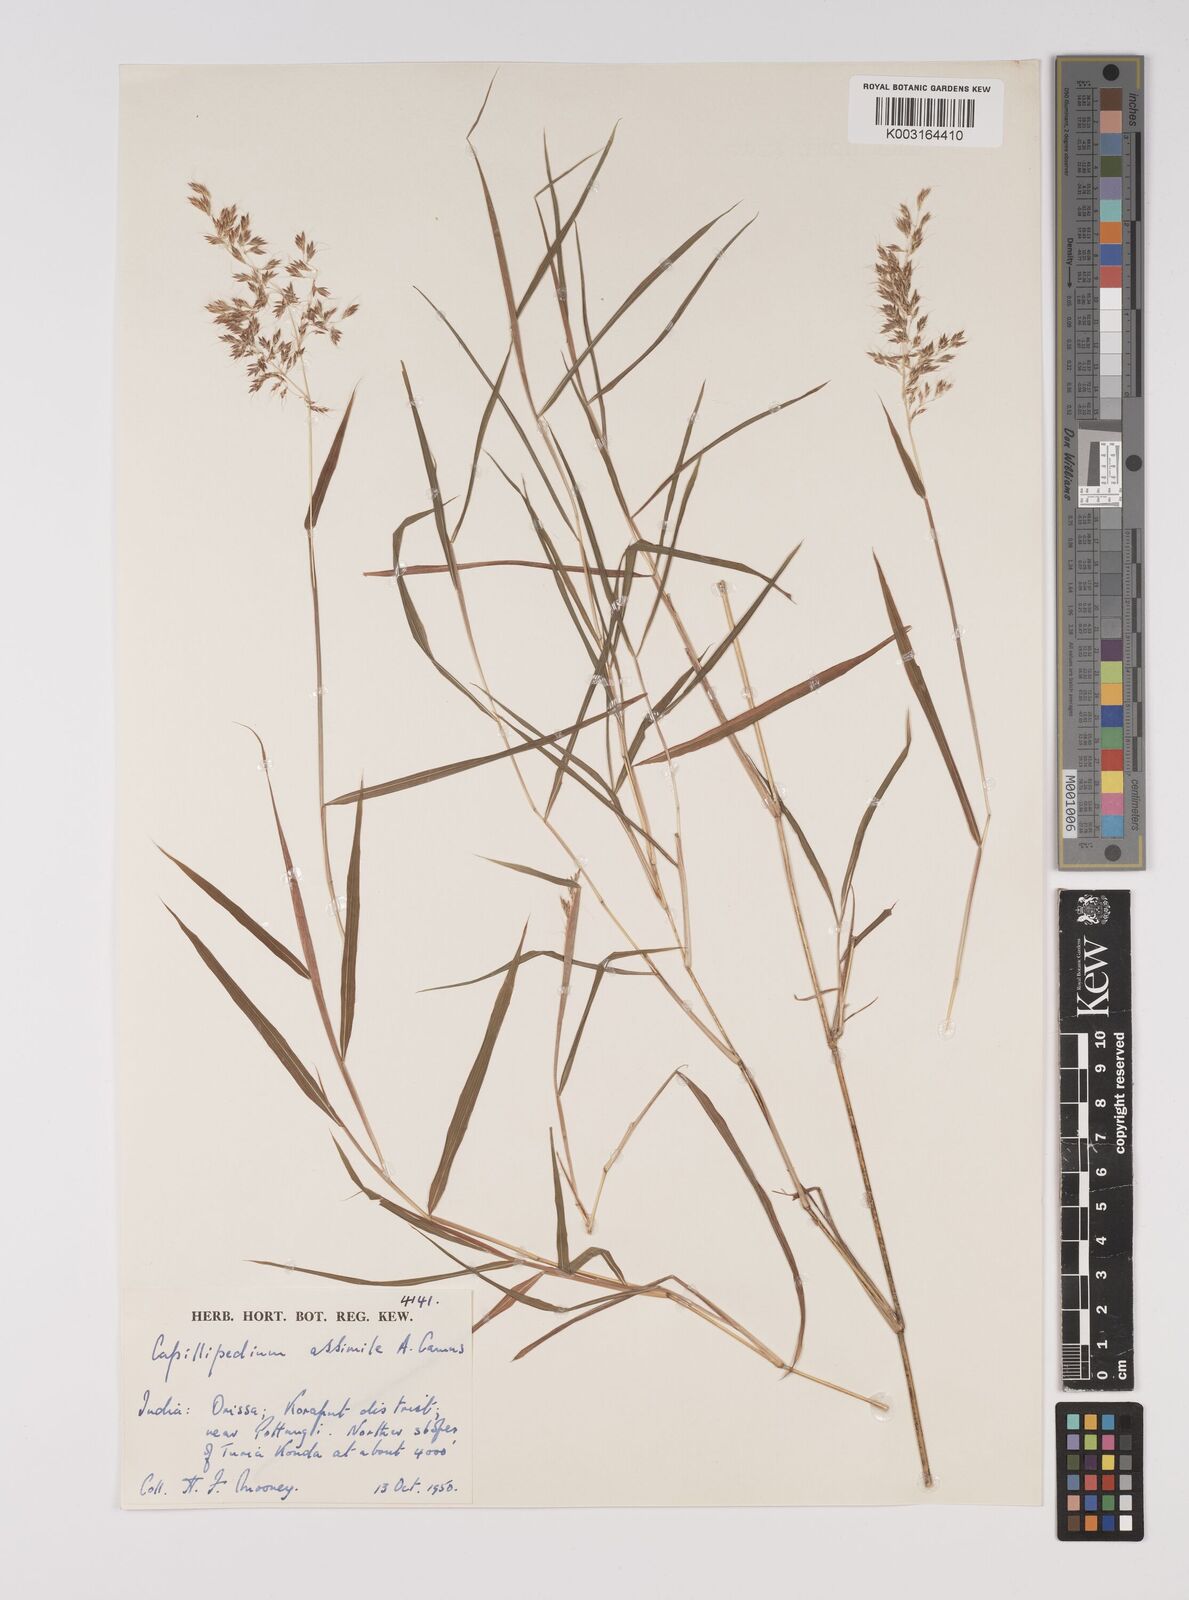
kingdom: Plantae
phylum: Tracheophyta
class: Liliopsida
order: Poales
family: Poaceae
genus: Capillipedium
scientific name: Capillipedium assimile
